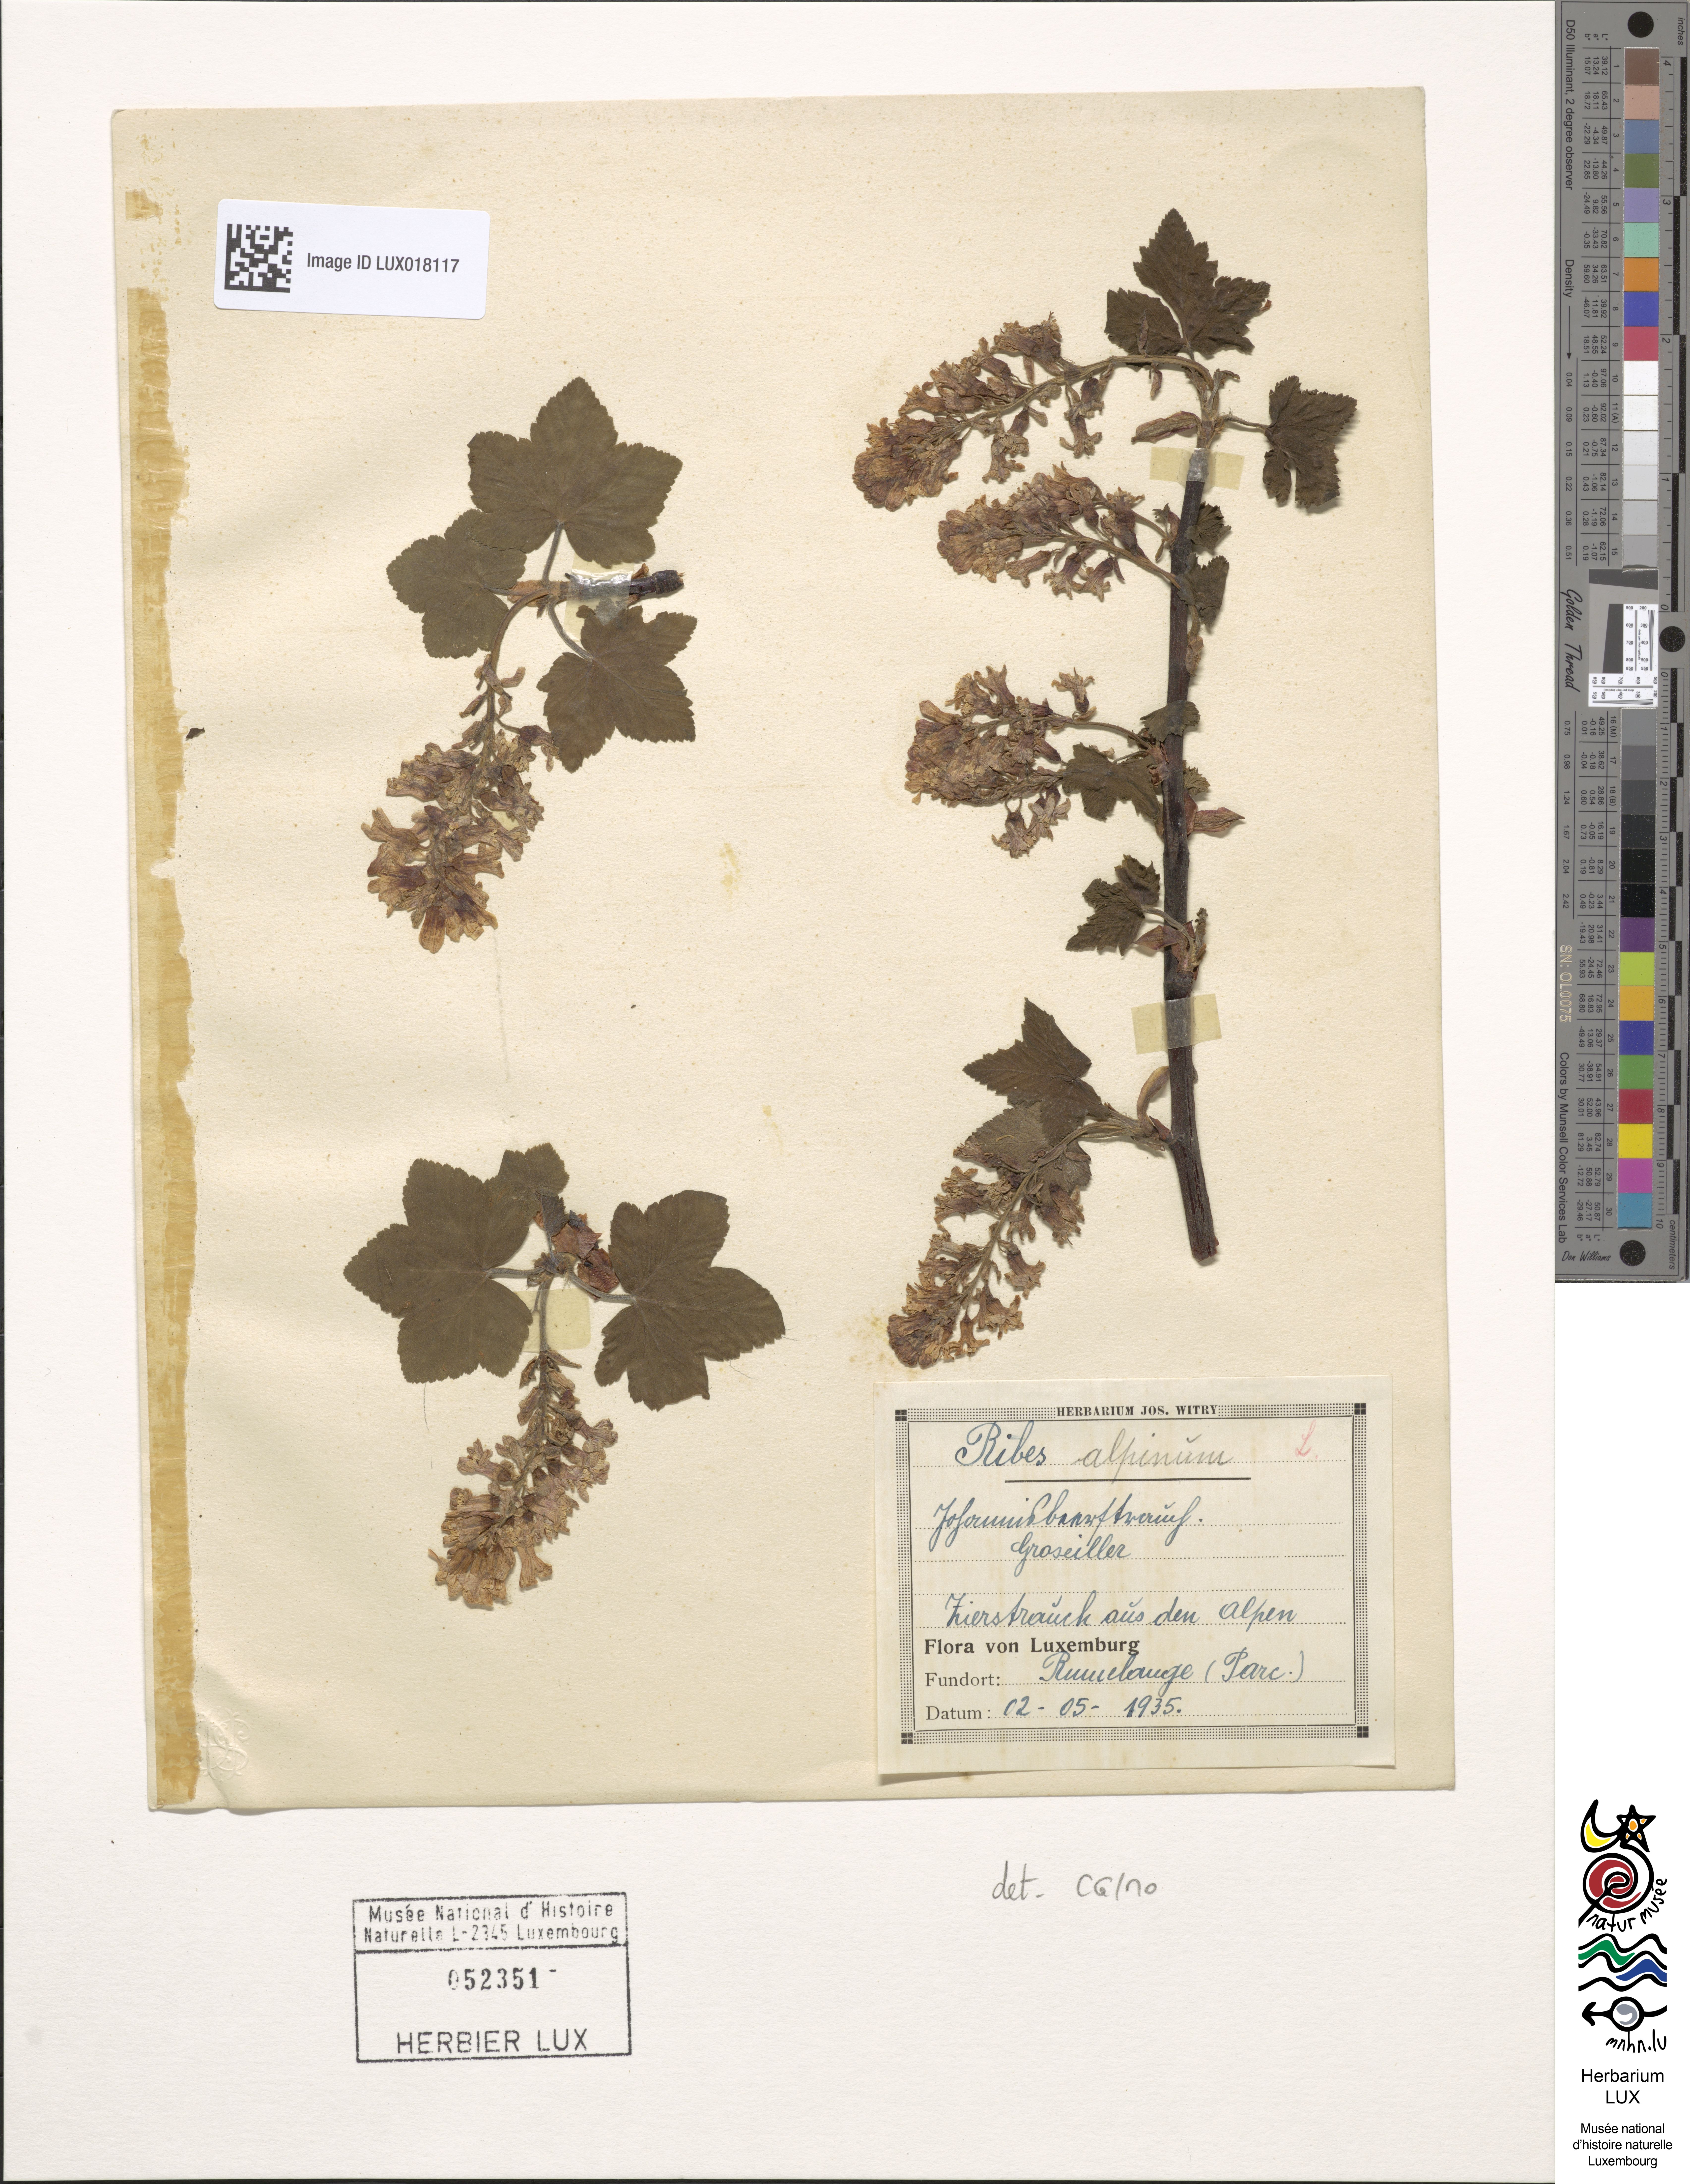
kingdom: Plantae
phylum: Tracheophyta
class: Magnoliopsida
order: Saxifragales
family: Grossulariaceae
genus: Ribes
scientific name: Ribes alpinum
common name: Alpine currant
